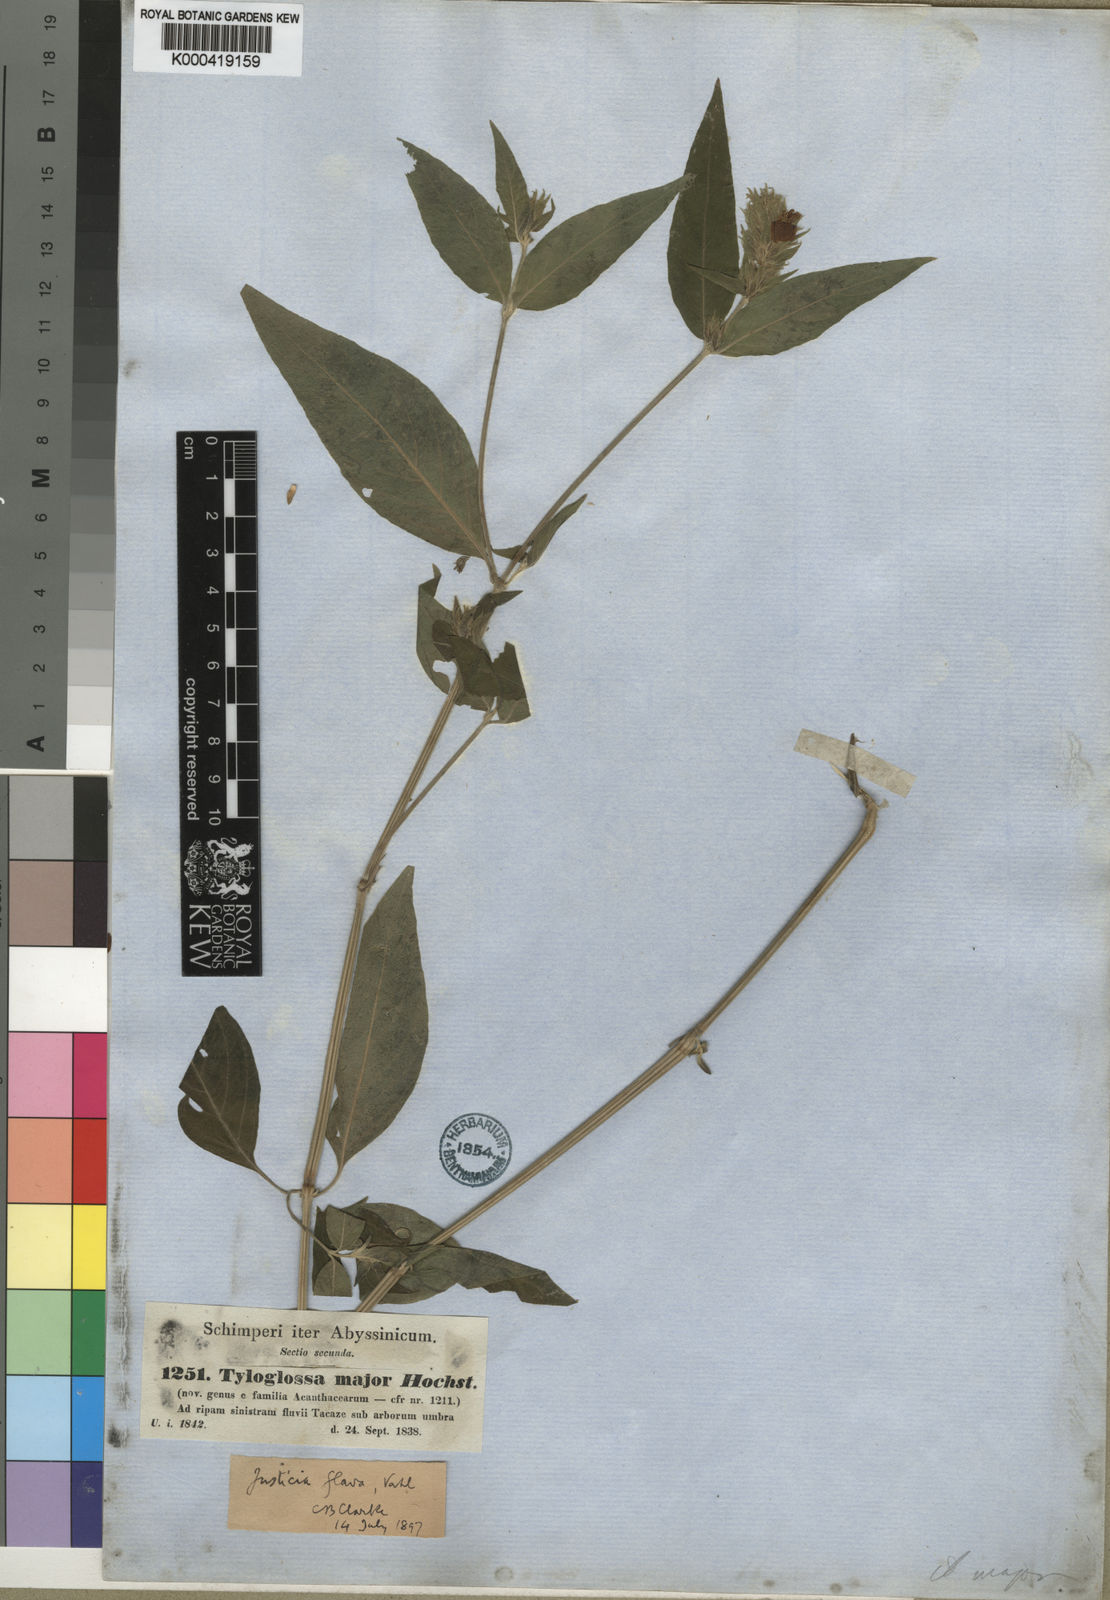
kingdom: Plantae
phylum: Tracheophyta
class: Magnoliopsida
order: Lamiales
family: Acanthaceae
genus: Justicia
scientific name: Justicia flava
